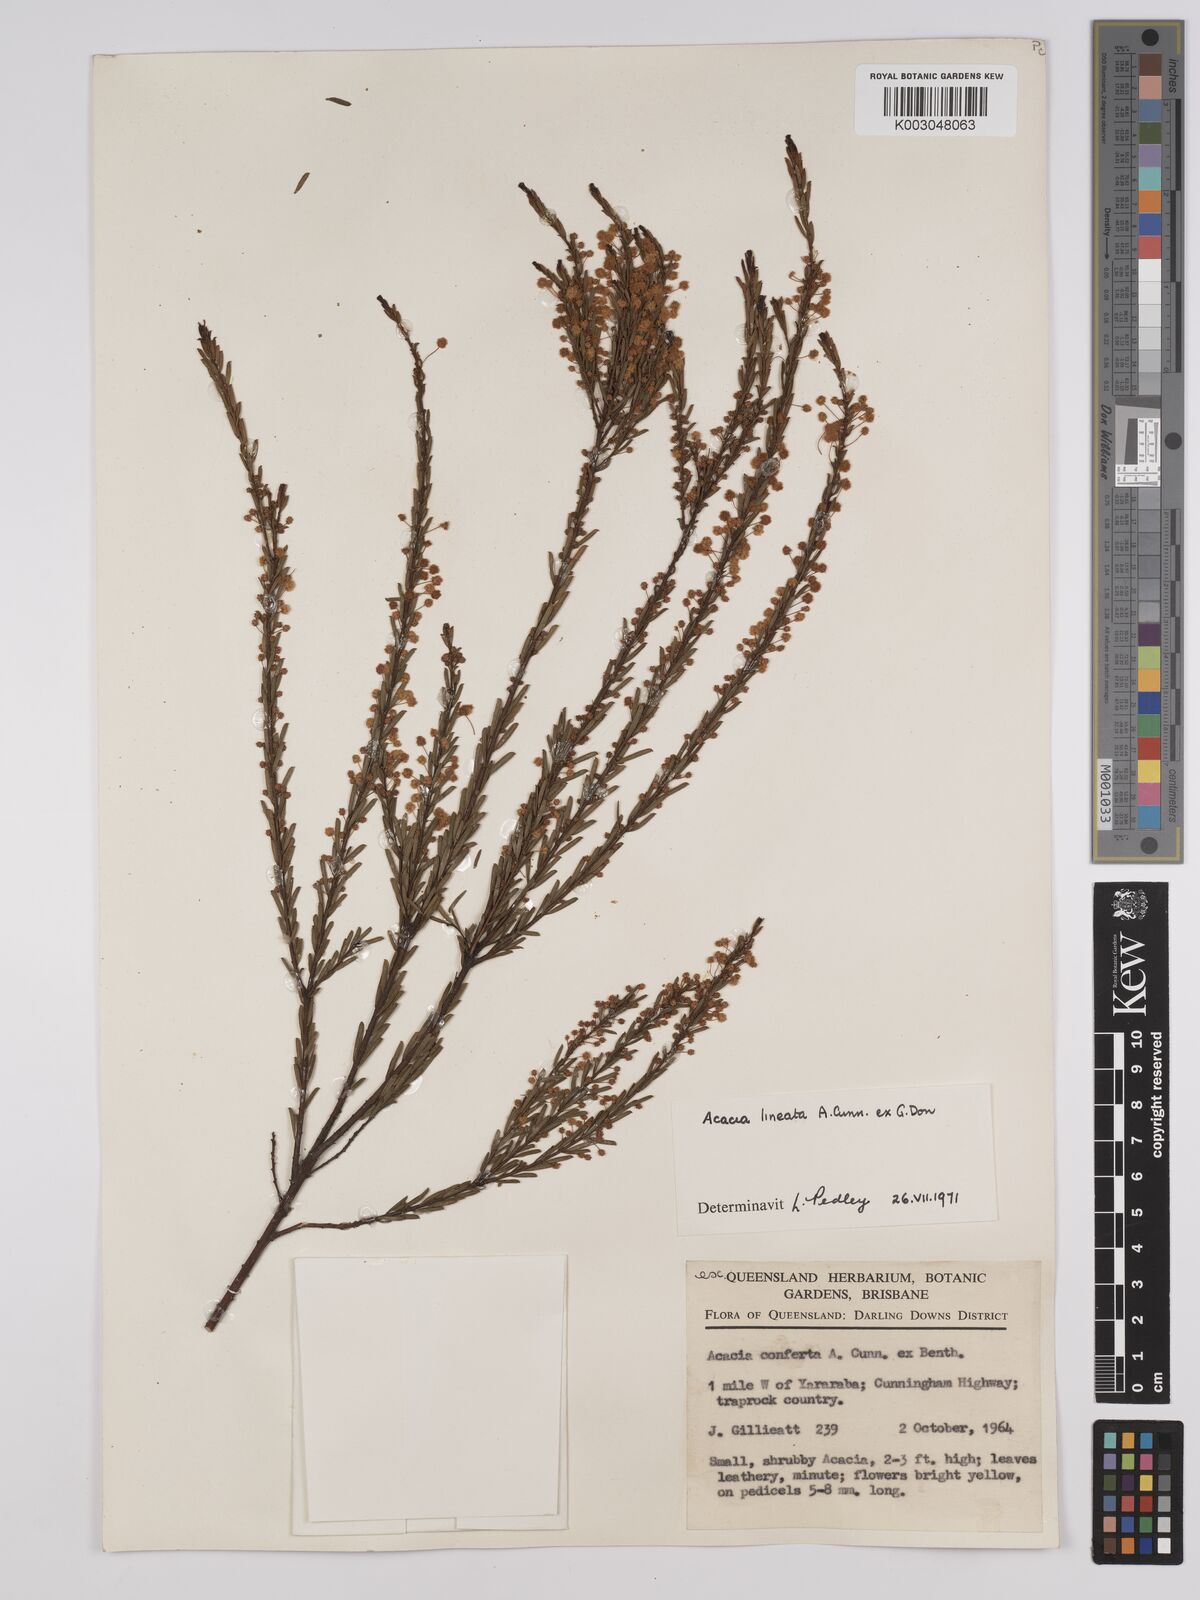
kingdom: Plantae
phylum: Tracheophyta
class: Magnoliopsida
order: Fabales
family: Fabaceae
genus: Acacia
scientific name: Acacia lineata
